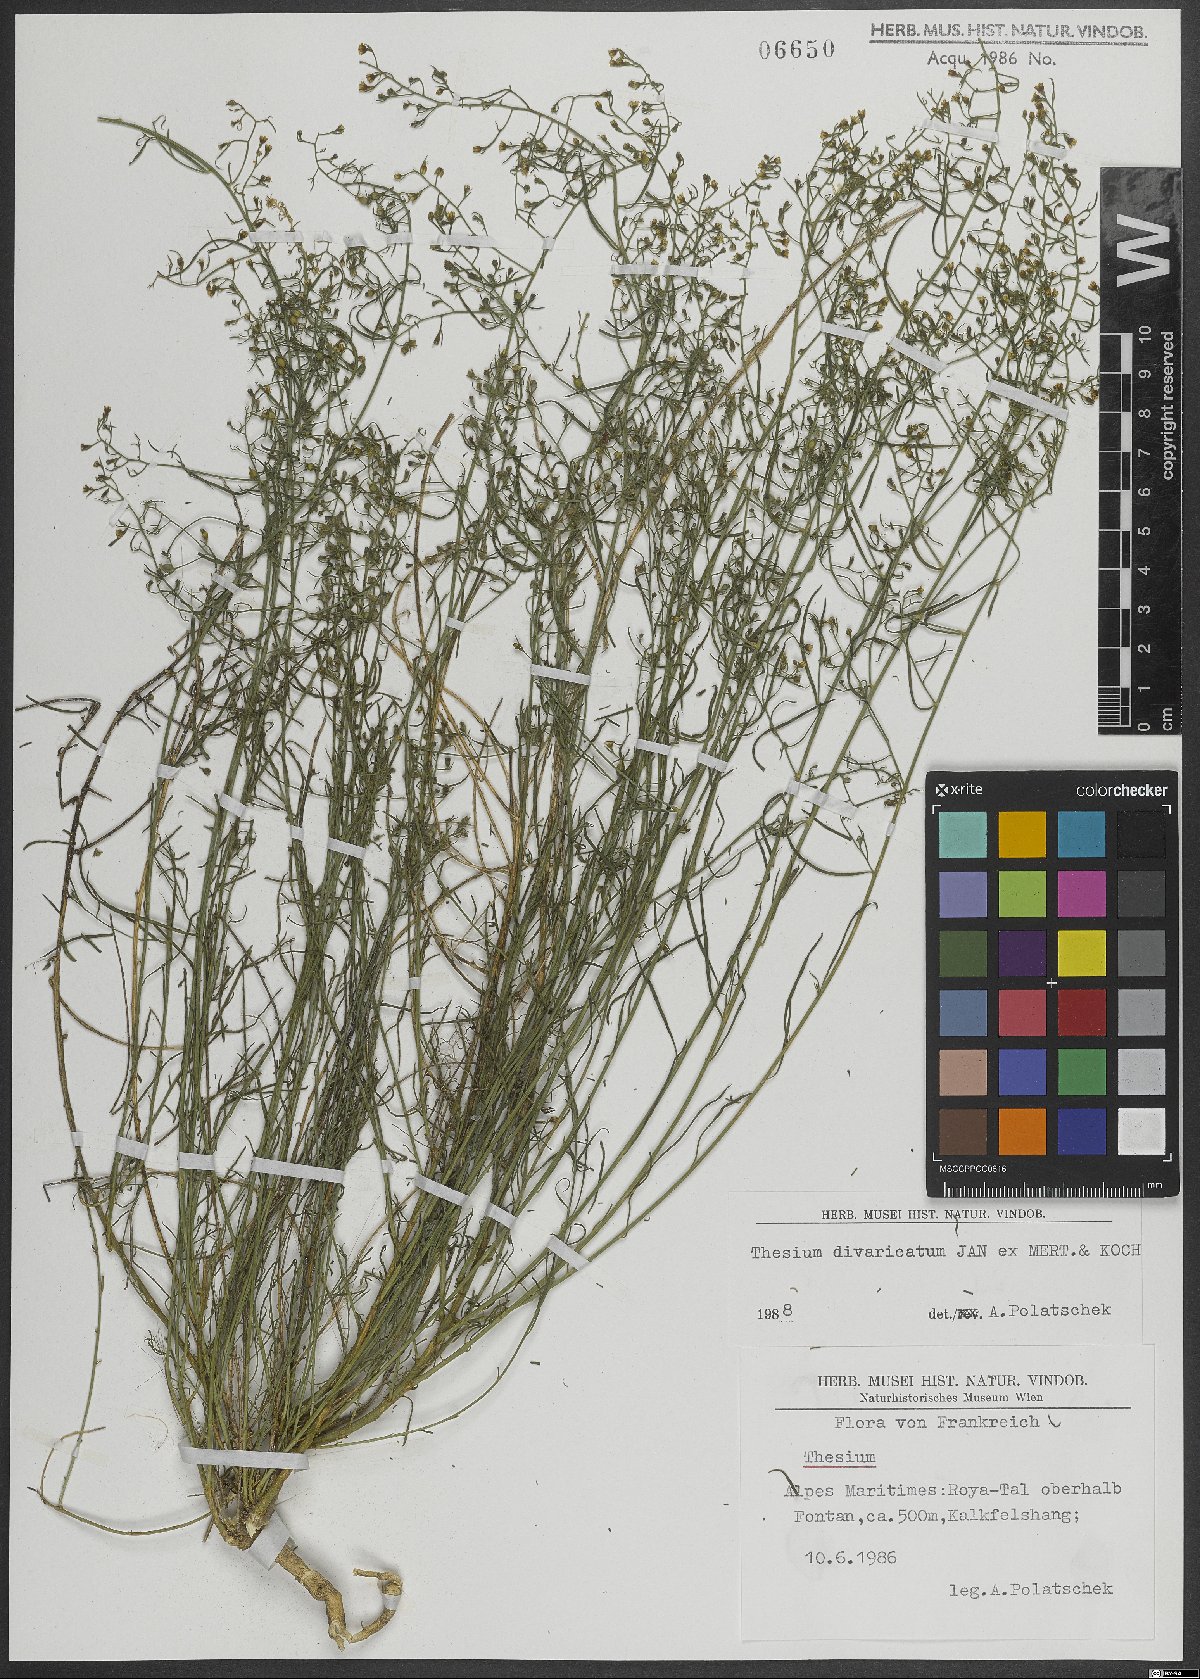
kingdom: Plantae
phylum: Tracheophyta
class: Magnoliopsida
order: Santalales
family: Thesiaceae
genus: Thesium
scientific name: Thesium divaricatum
